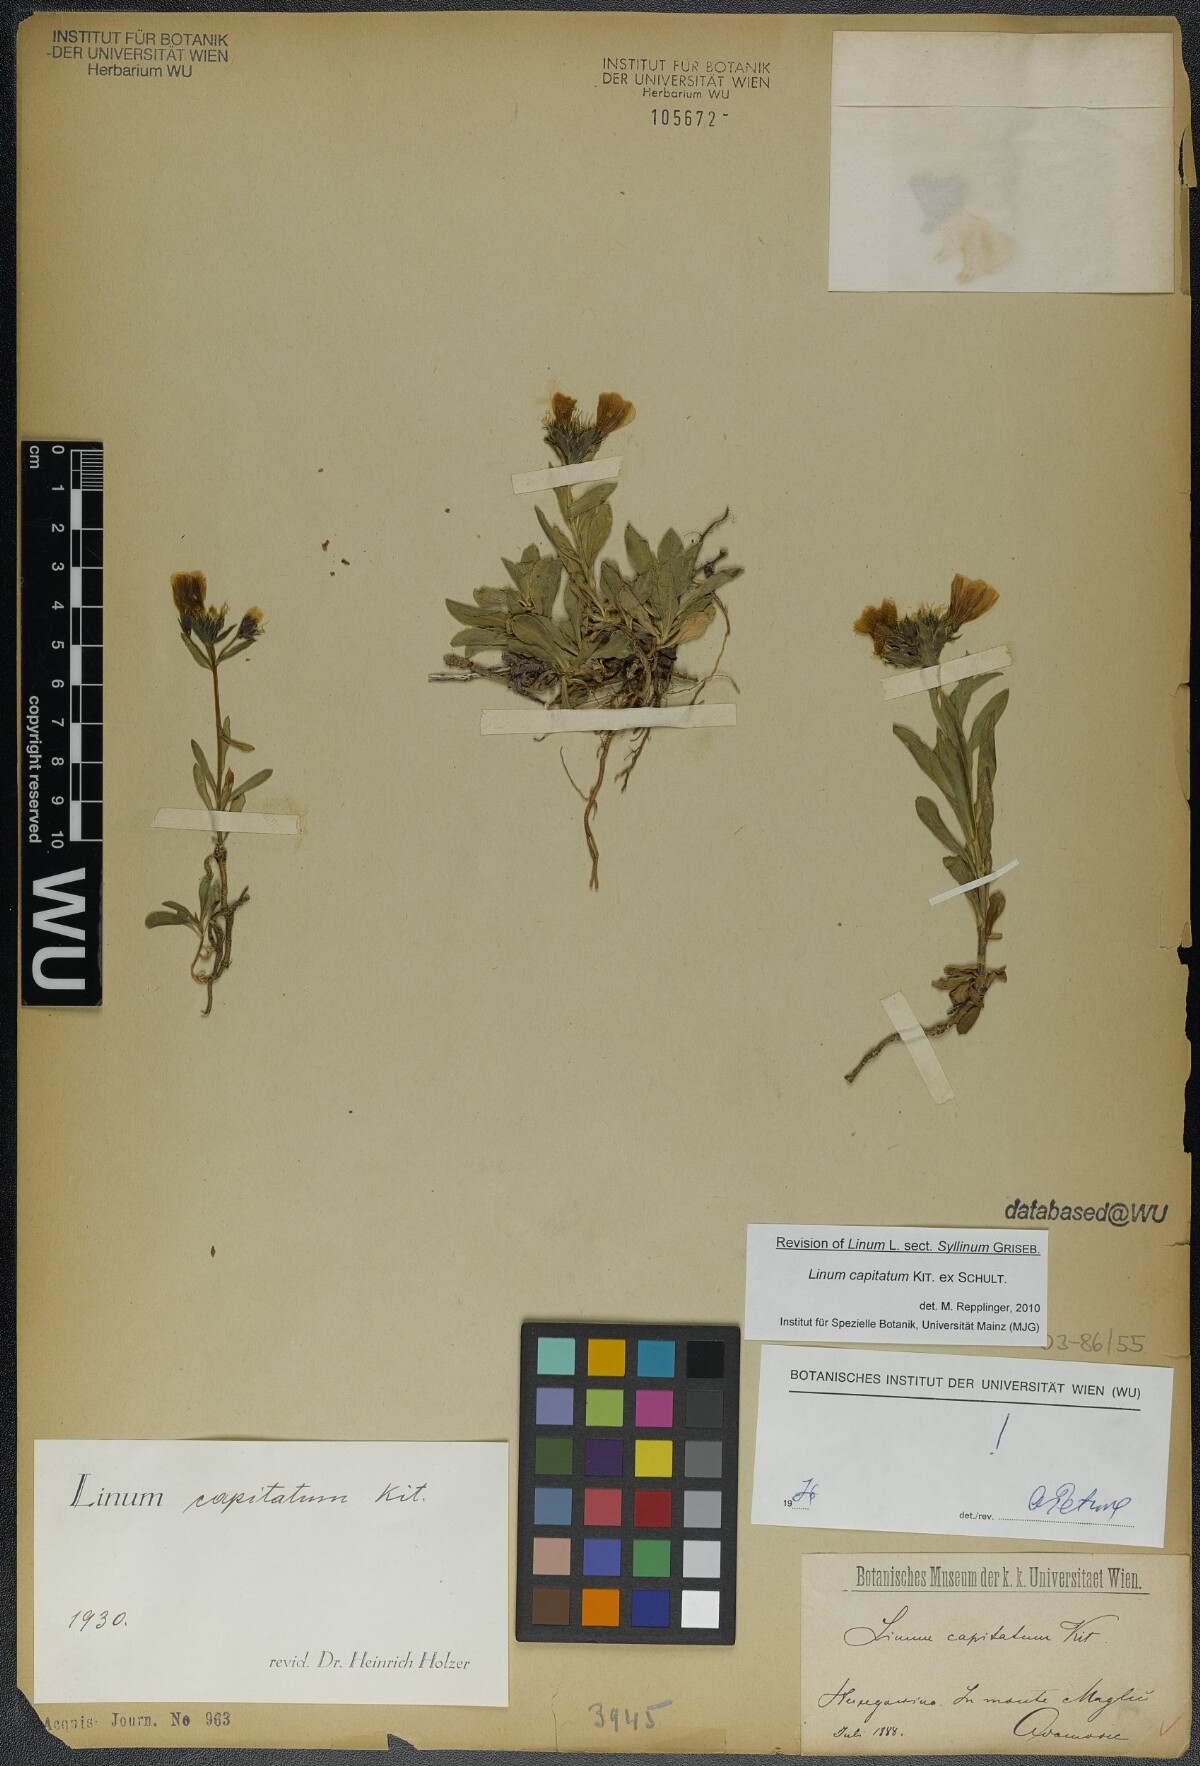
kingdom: Plantae
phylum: Tracheophyta
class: Magnoliopsida
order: Malpighiales
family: Linaceae
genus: Linum
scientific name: Linum capitatum
